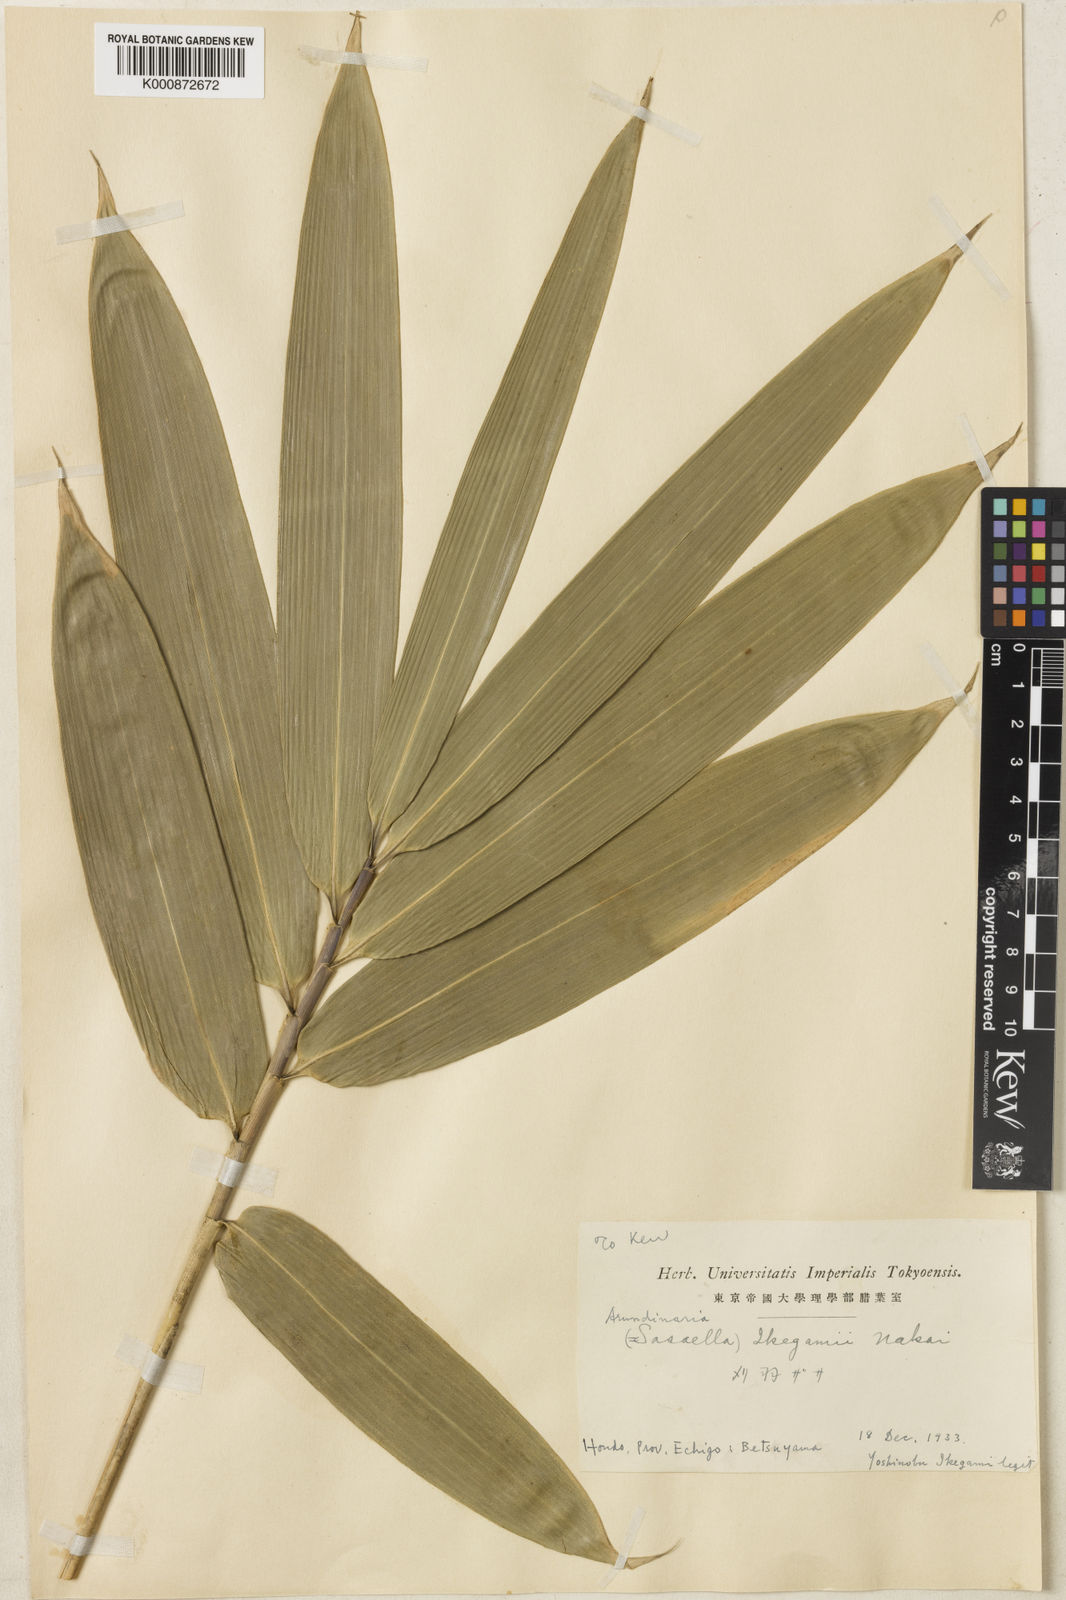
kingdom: Plantae
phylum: Tracheophyta
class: Liliopsida
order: Poales
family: Poaceae
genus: Sasaella
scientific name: Sasaella yamakitensis
